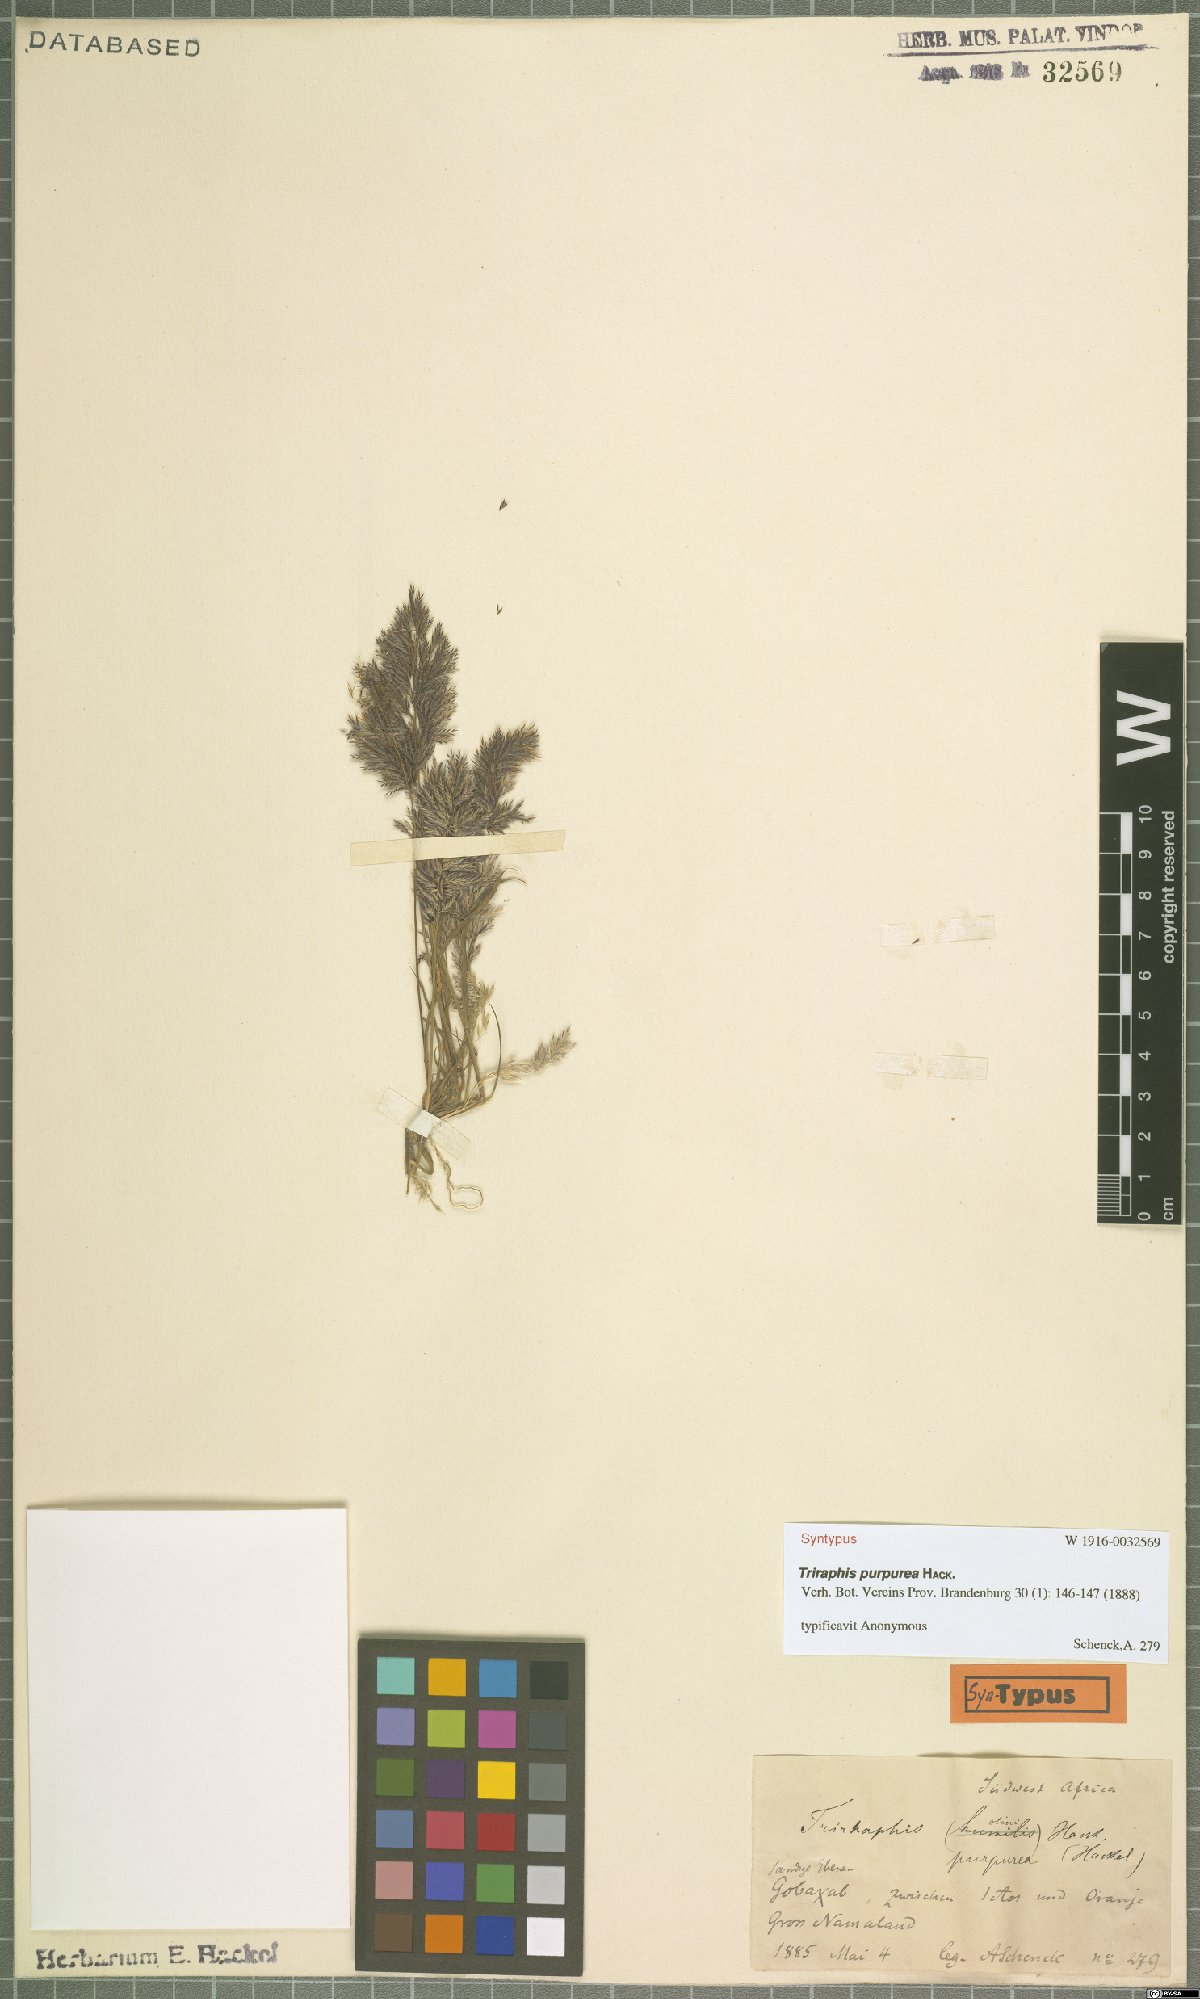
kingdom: Plantae
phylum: Tracheophyta
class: Liliopsida
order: Poales
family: Poaceae
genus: Triraphis
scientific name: Triraphis purpurea
